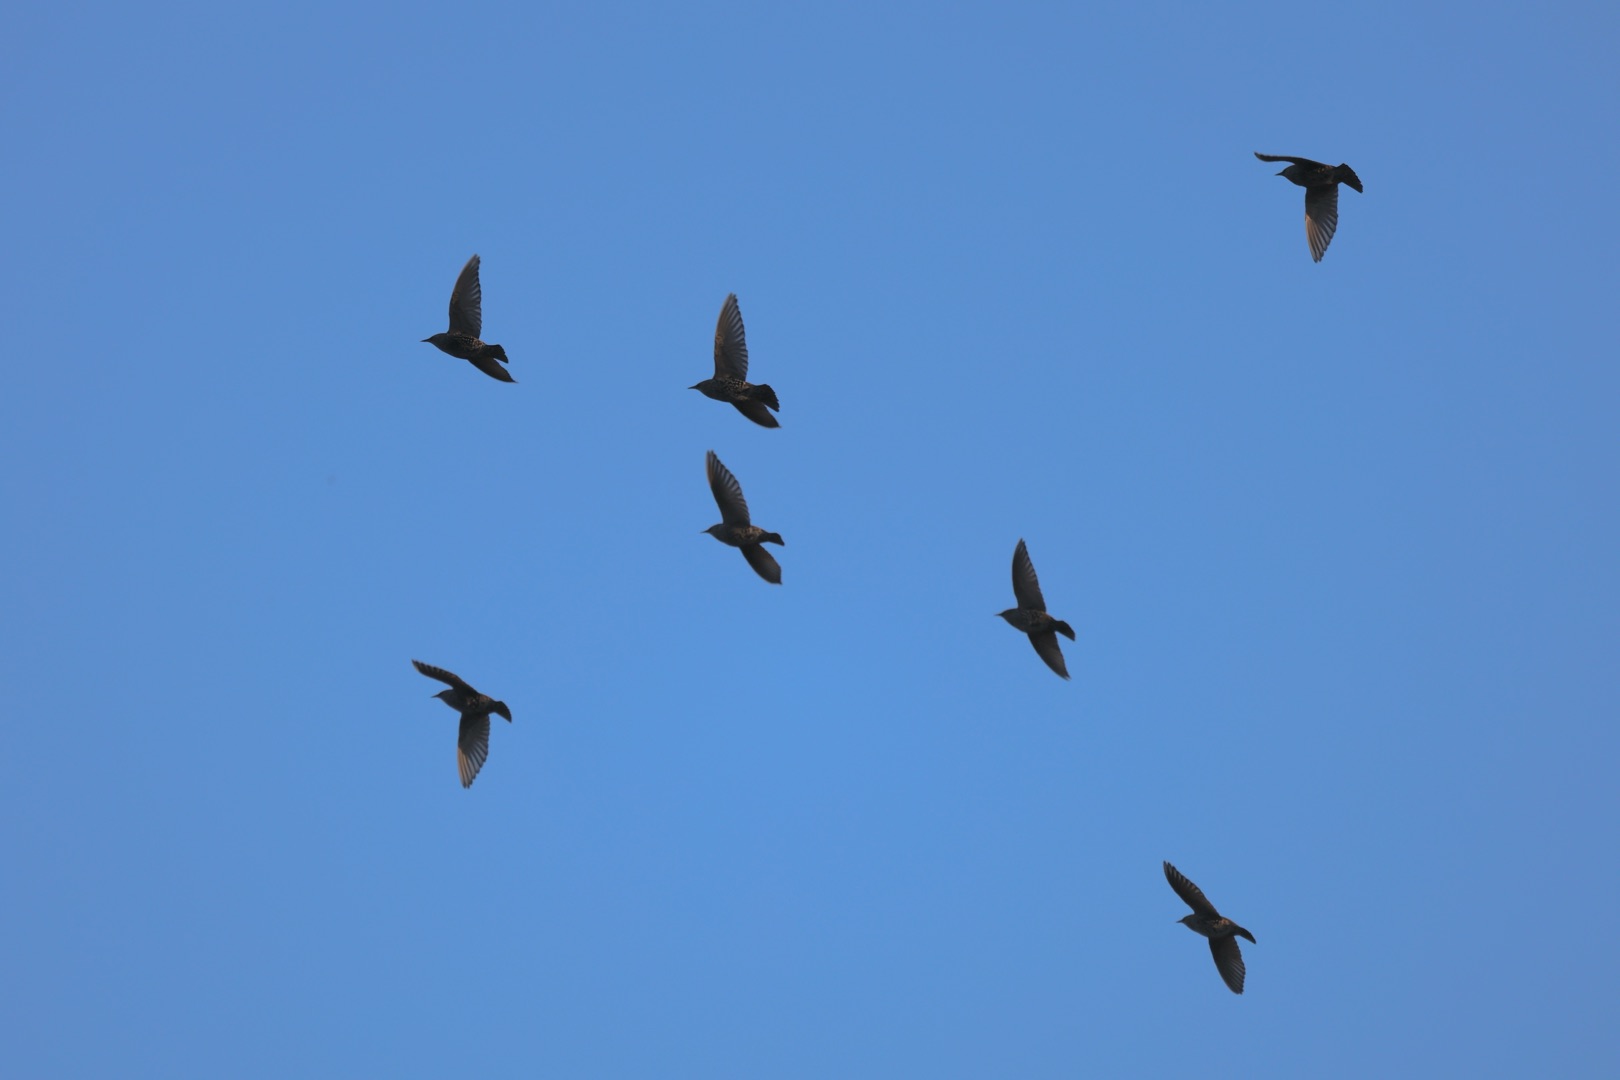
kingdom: Animalia
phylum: Chordata
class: Aves
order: Passeriformes
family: Sturnidae
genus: Sturnus
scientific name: Sturnus vulgaris
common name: Stær
